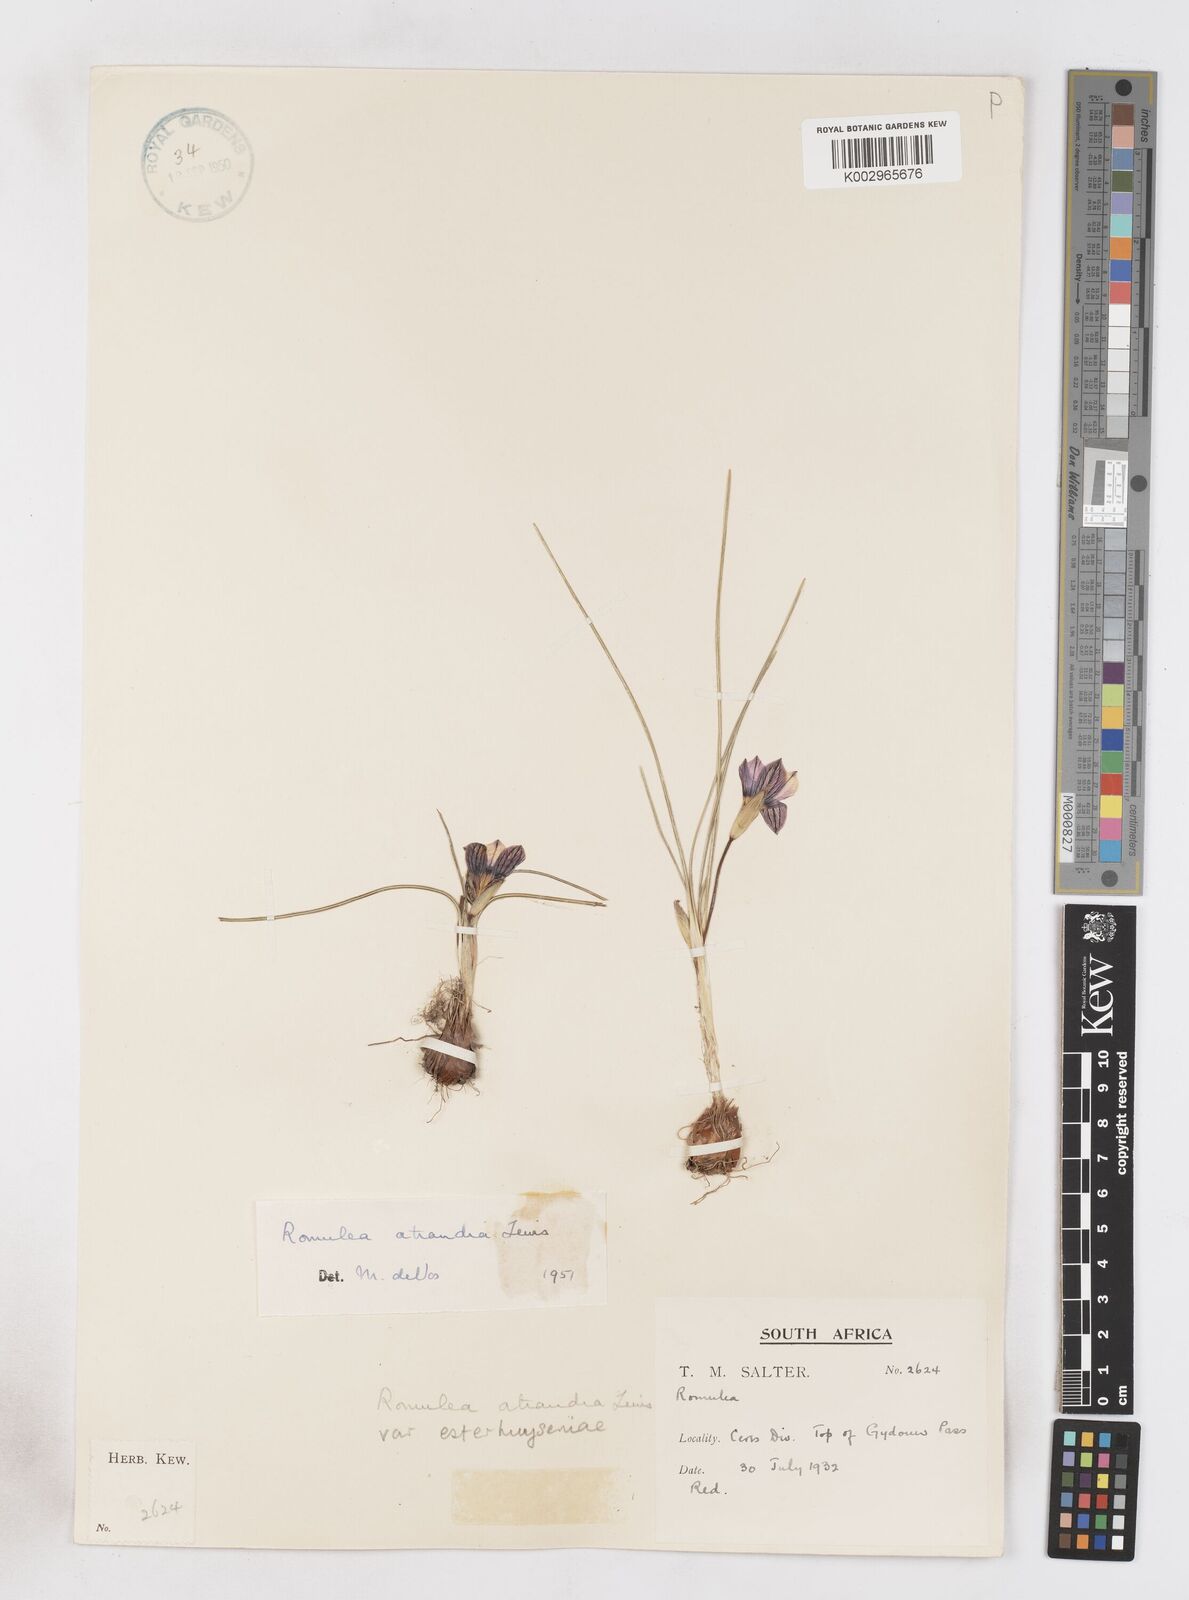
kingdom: Plantae
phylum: Tracheophyta
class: Liliopsida
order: Asparagales
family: Iridaceae
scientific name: Iridaceae
